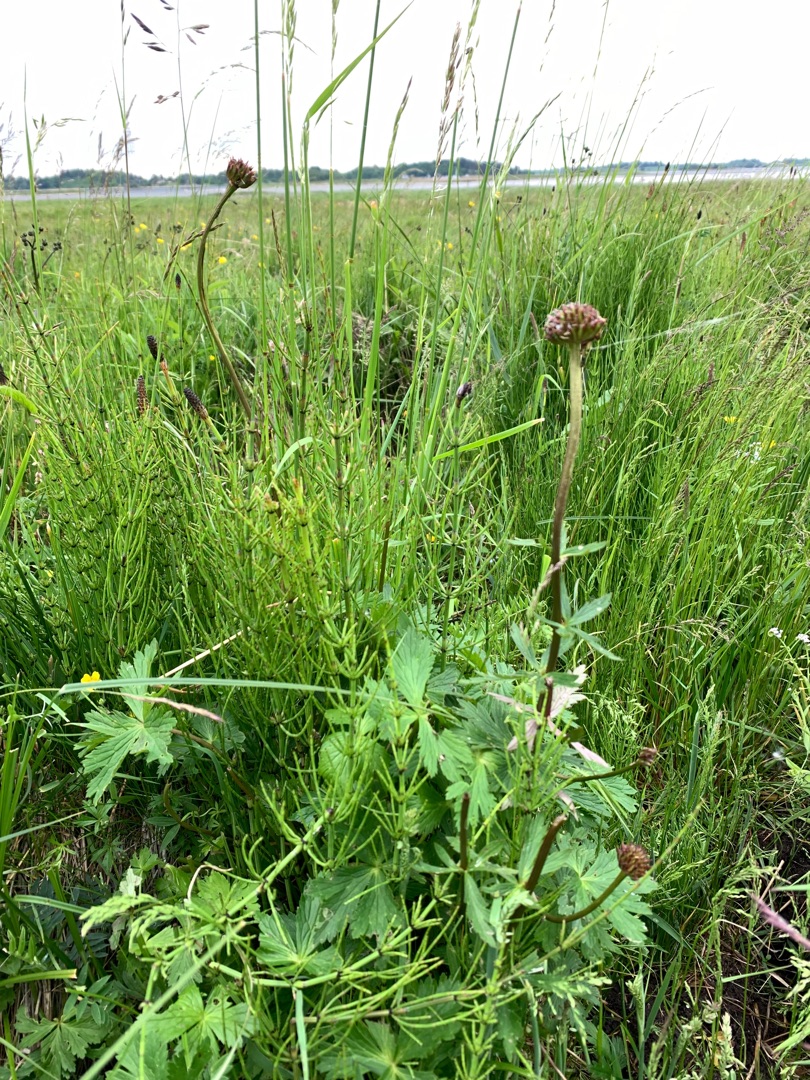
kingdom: Plantae
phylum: Tracheophyta
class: Magnoliopsida
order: Ranunculales
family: Ranunculaceae
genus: Trollius
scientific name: Trollius europaeus
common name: Engblomme
